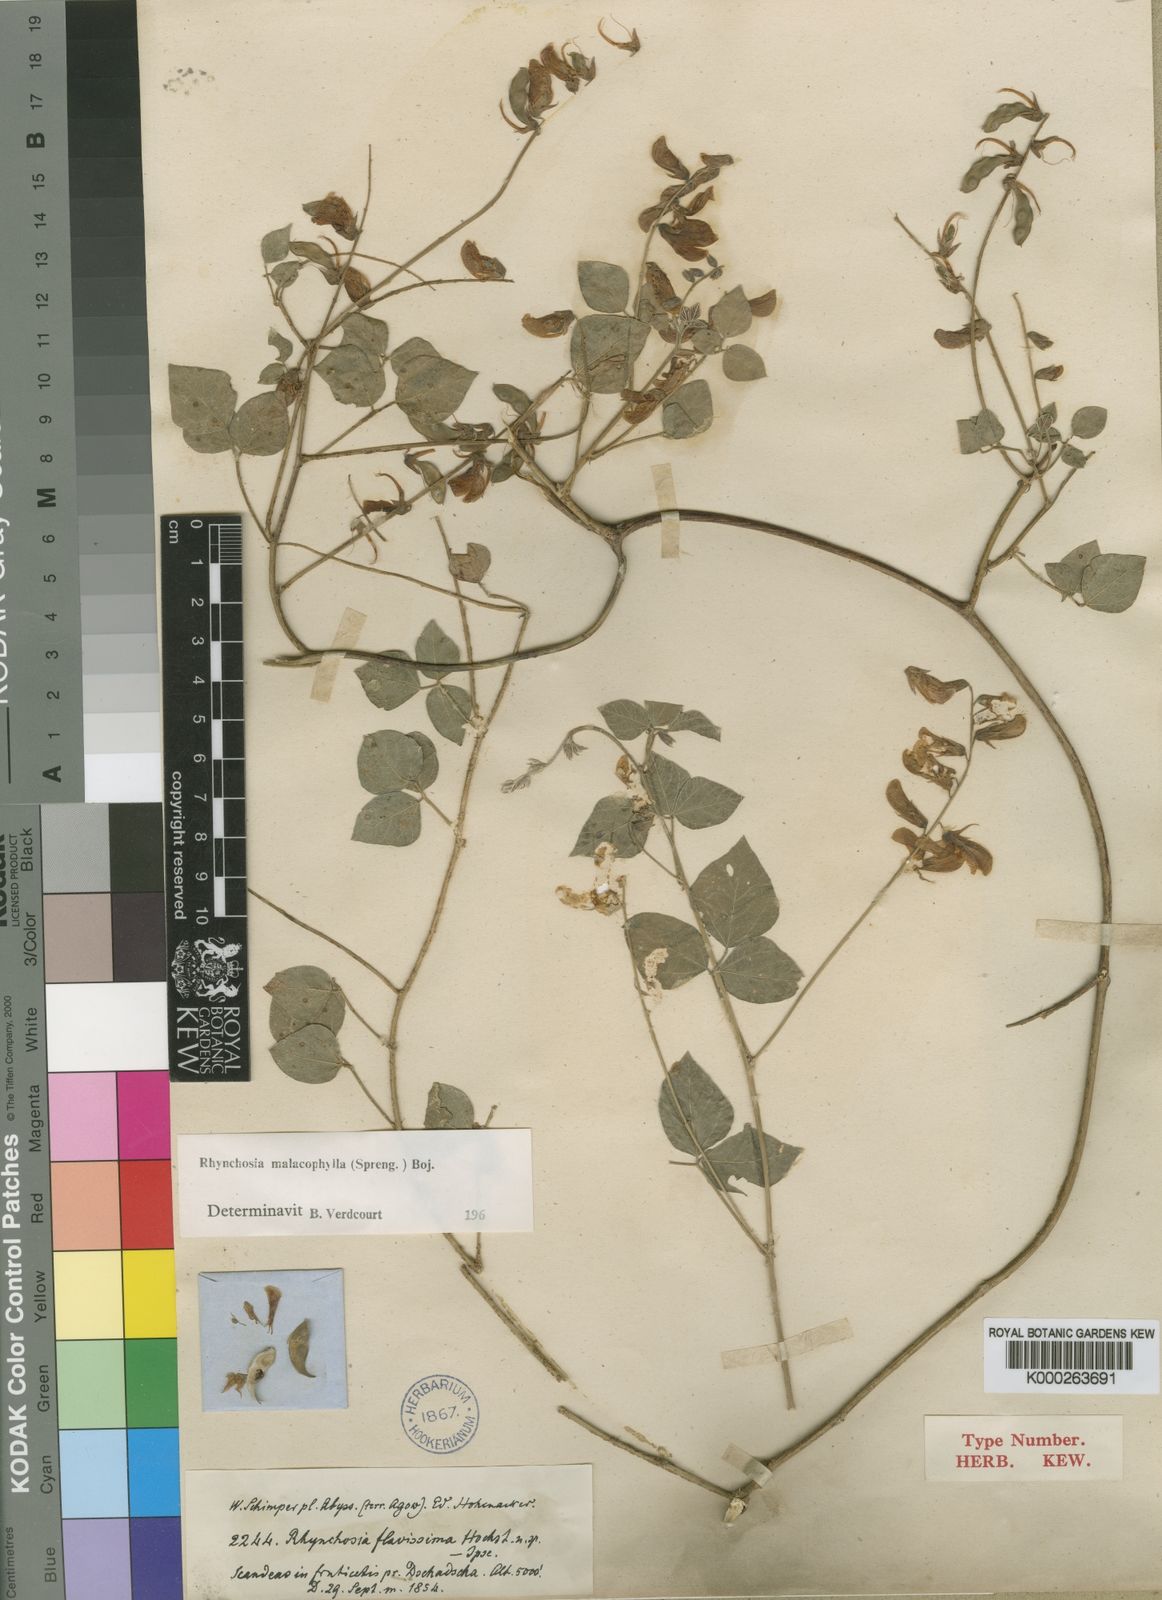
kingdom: Plantae
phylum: Tracheophyta
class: Magnoliopsida
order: Fabales
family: Fabaceae
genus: Rhynchosia
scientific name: Rhynchosia malacophylla
